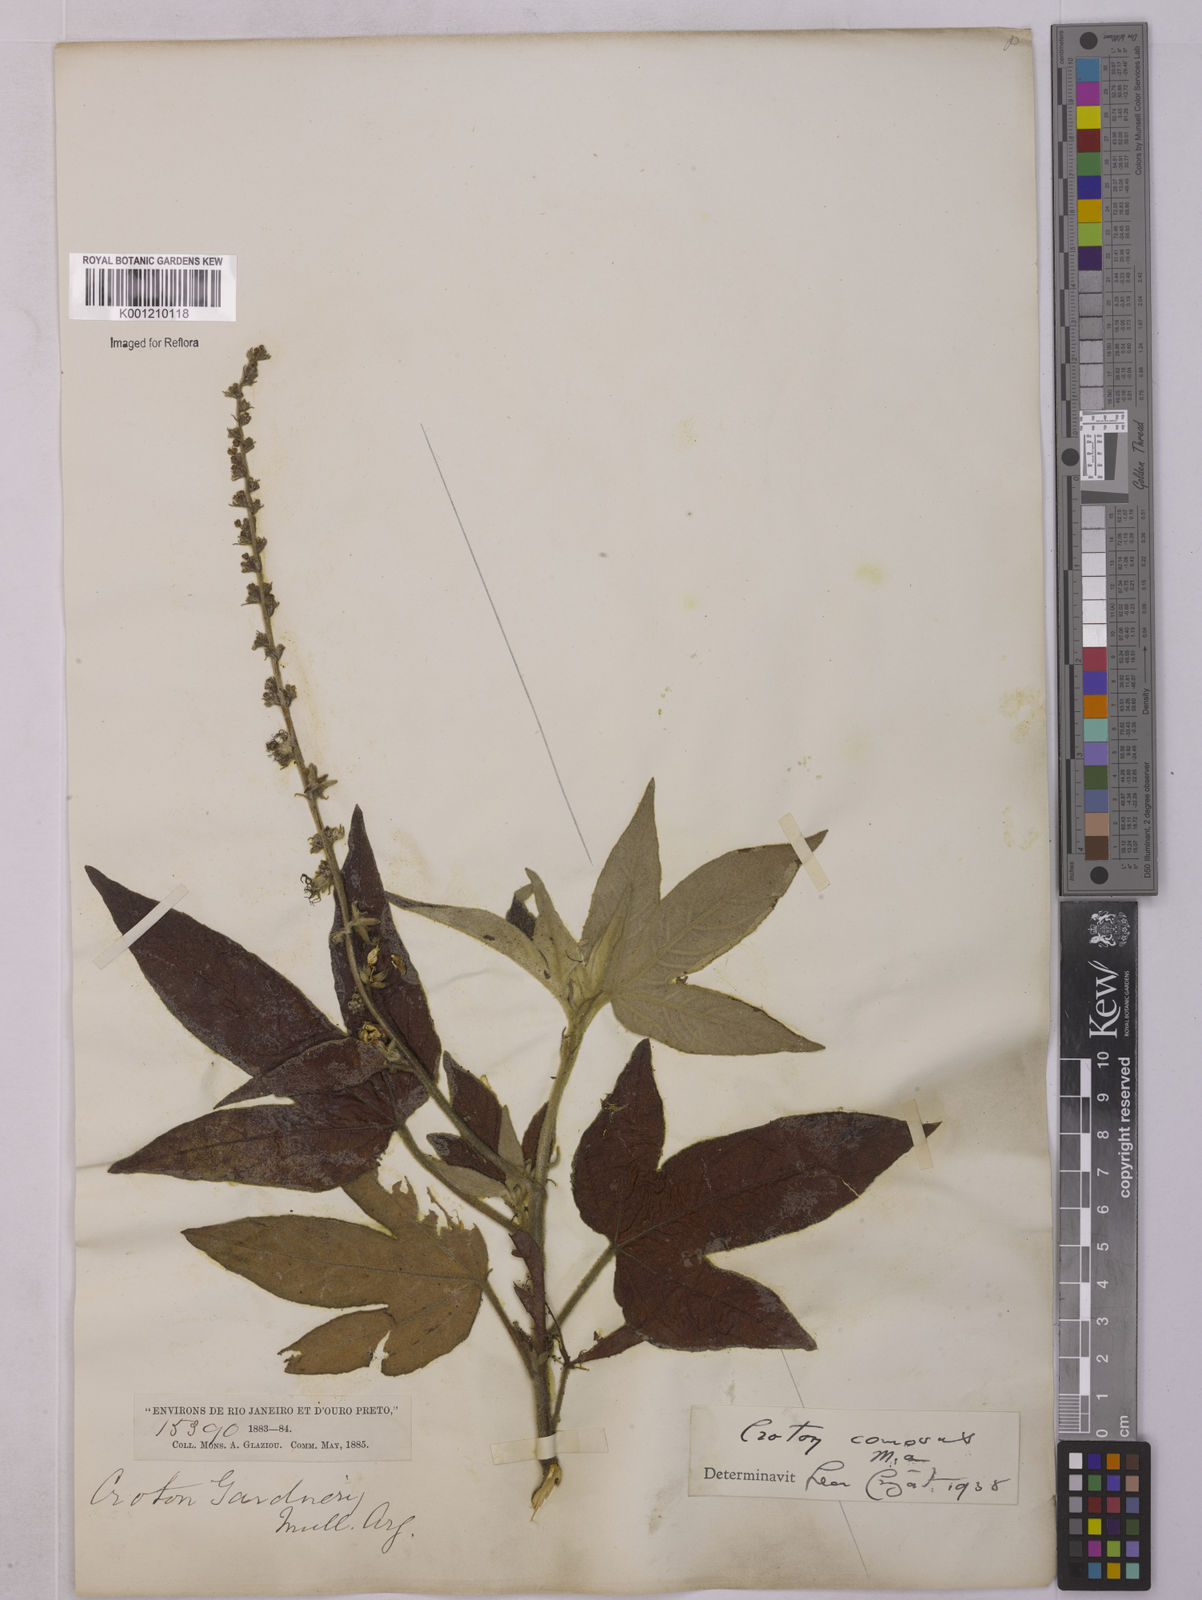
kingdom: Plantae
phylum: Tracheophyta
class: Magnoliopsida
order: Malpighiales
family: Euphorbiaceae
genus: Astraea
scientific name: Astraea
